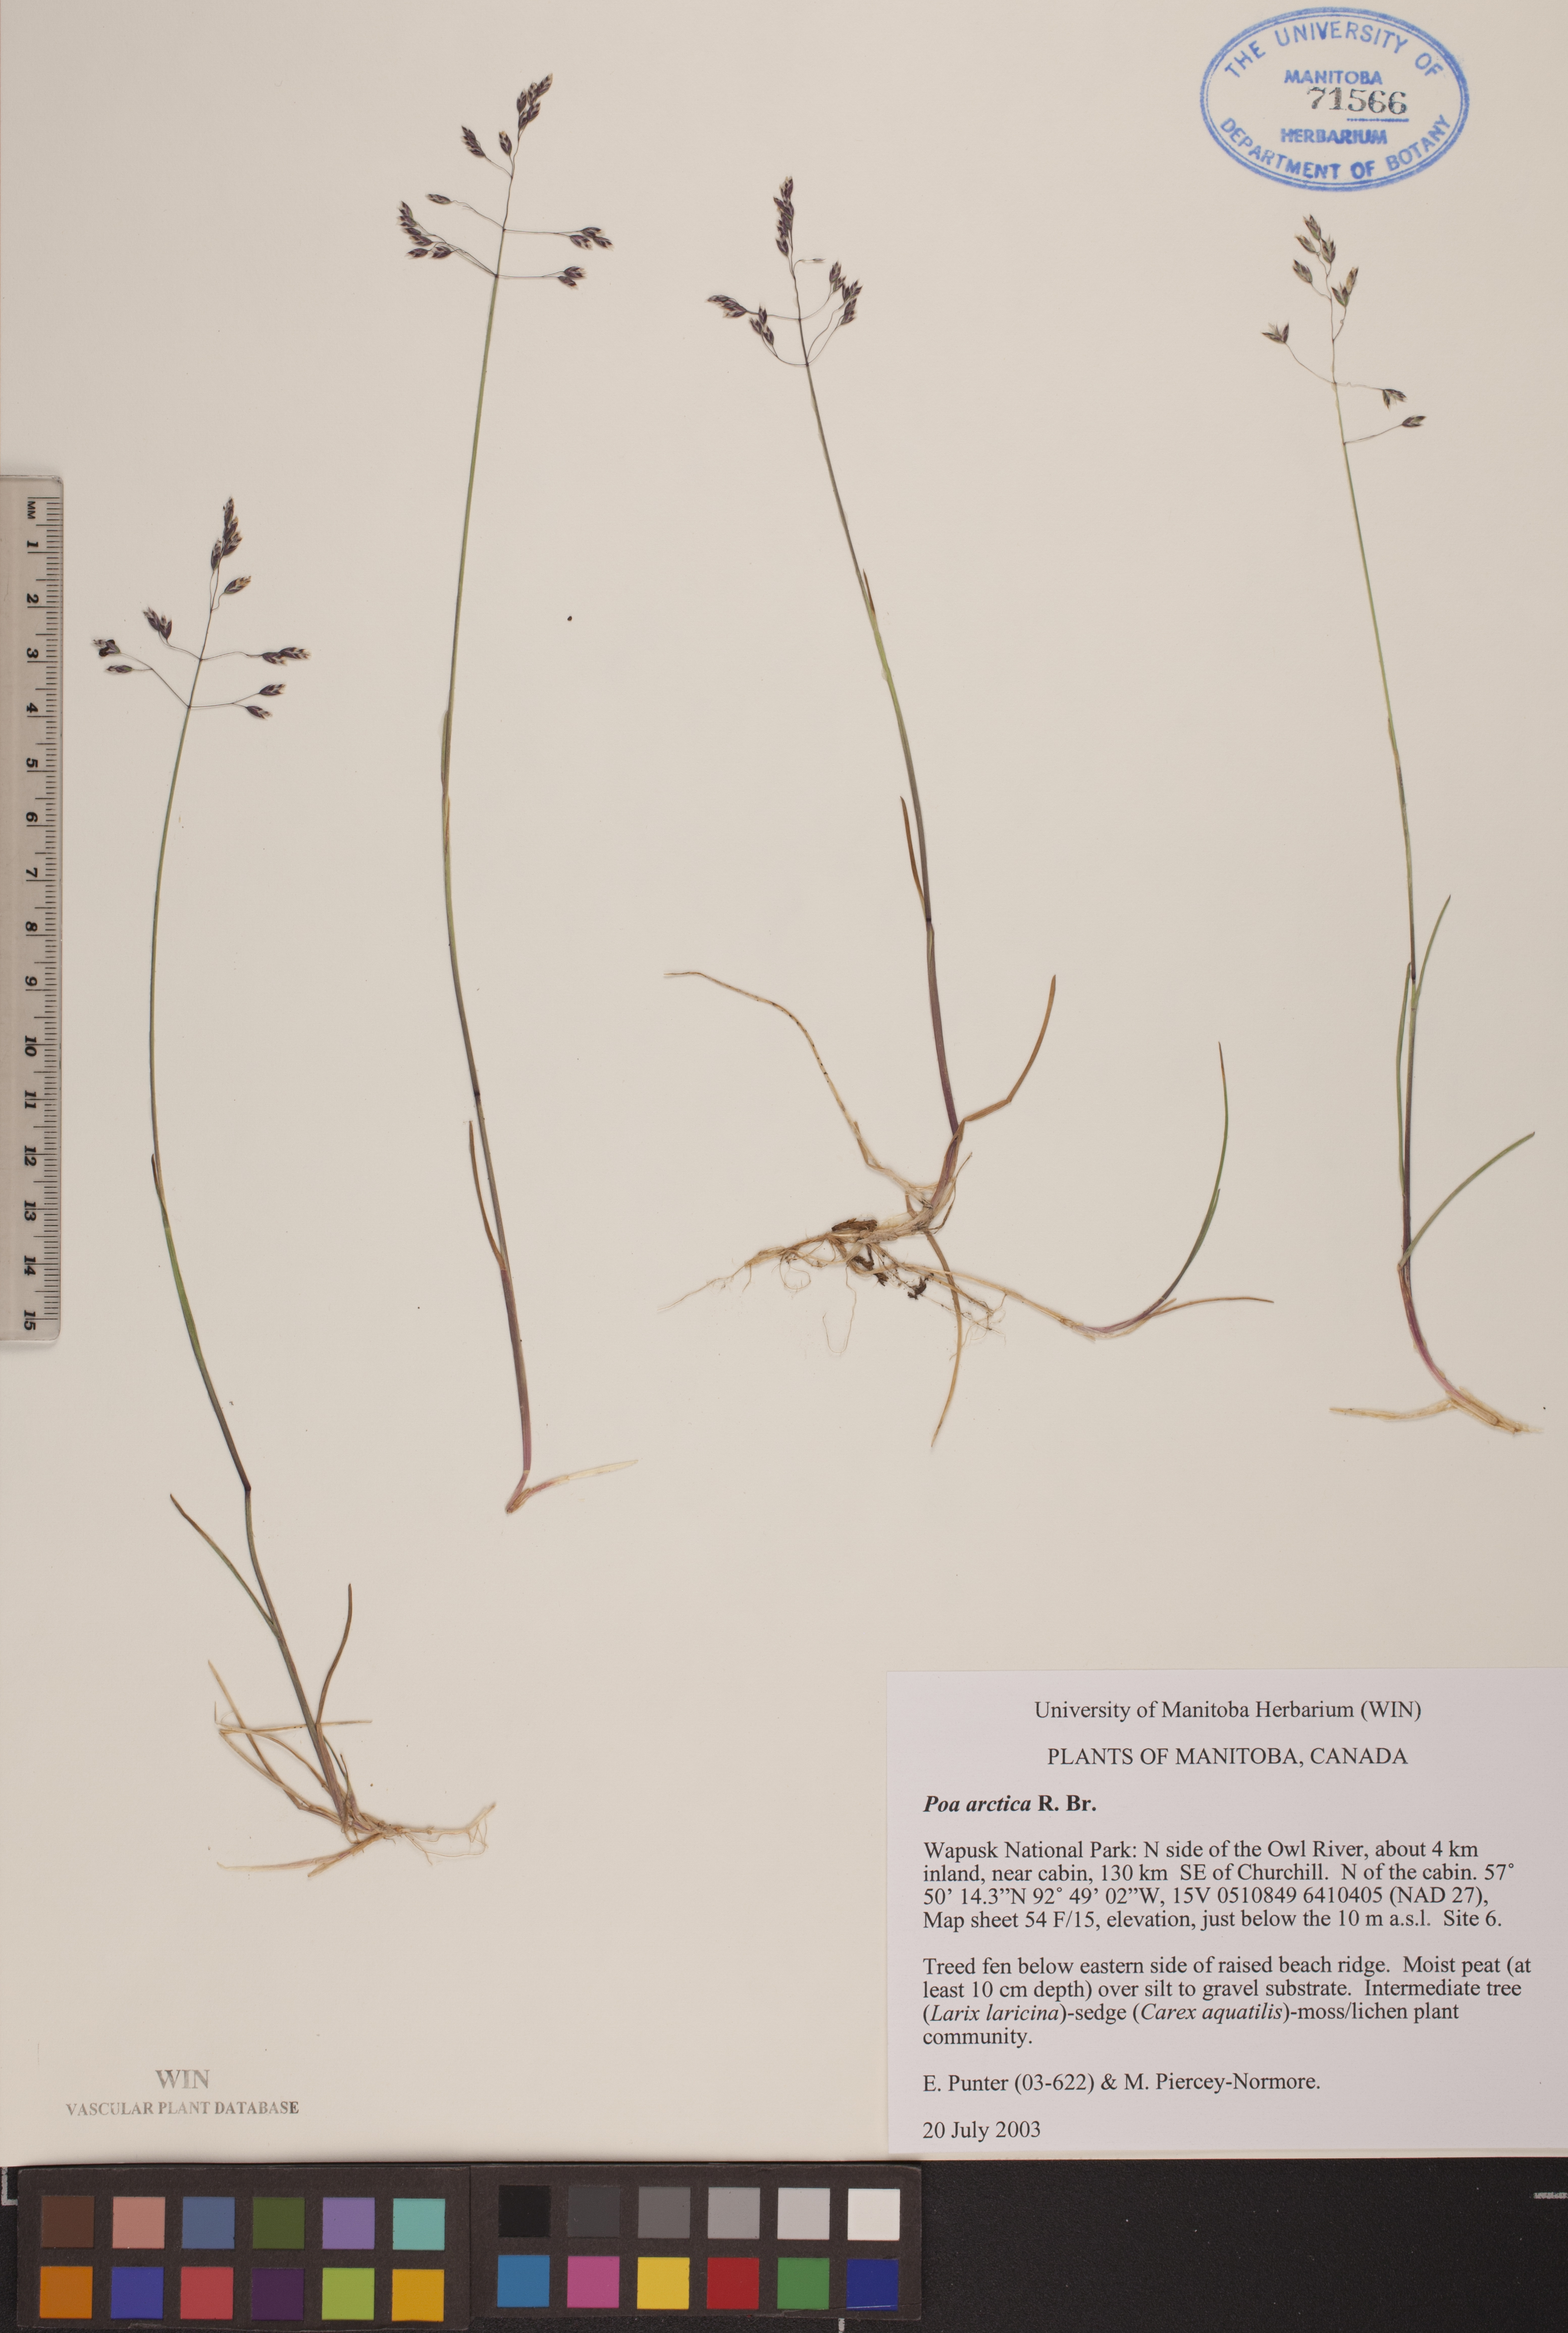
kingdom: Plantae
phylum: Tracheophyta
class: Liliopsida
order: Poales
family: Poaceae
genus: Poa
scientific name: Poa arctica
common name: Arctic bluegrass
